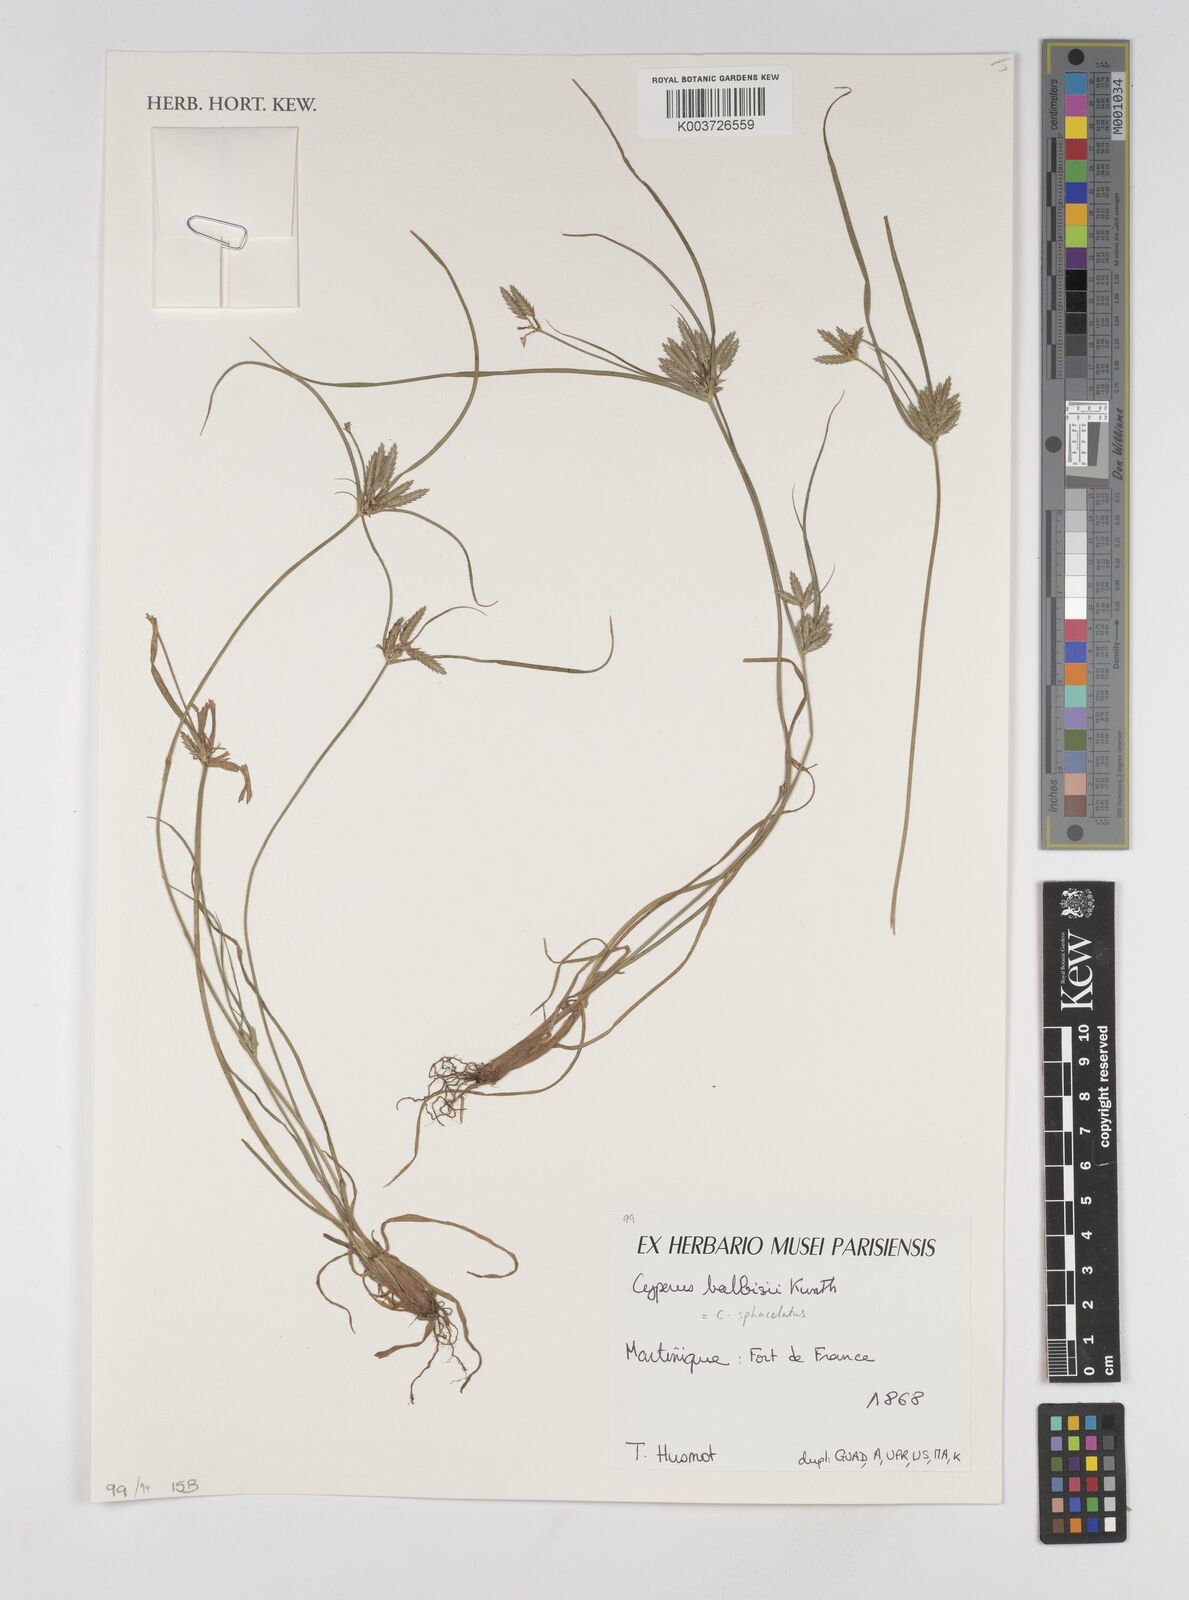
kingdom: Plantae
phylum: Tracheophyta
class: Liliopsida
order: Poales
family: Cyperaceae
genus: Cyperus
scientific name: Cyperus sphacelatus
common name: Roadside flatsedge
